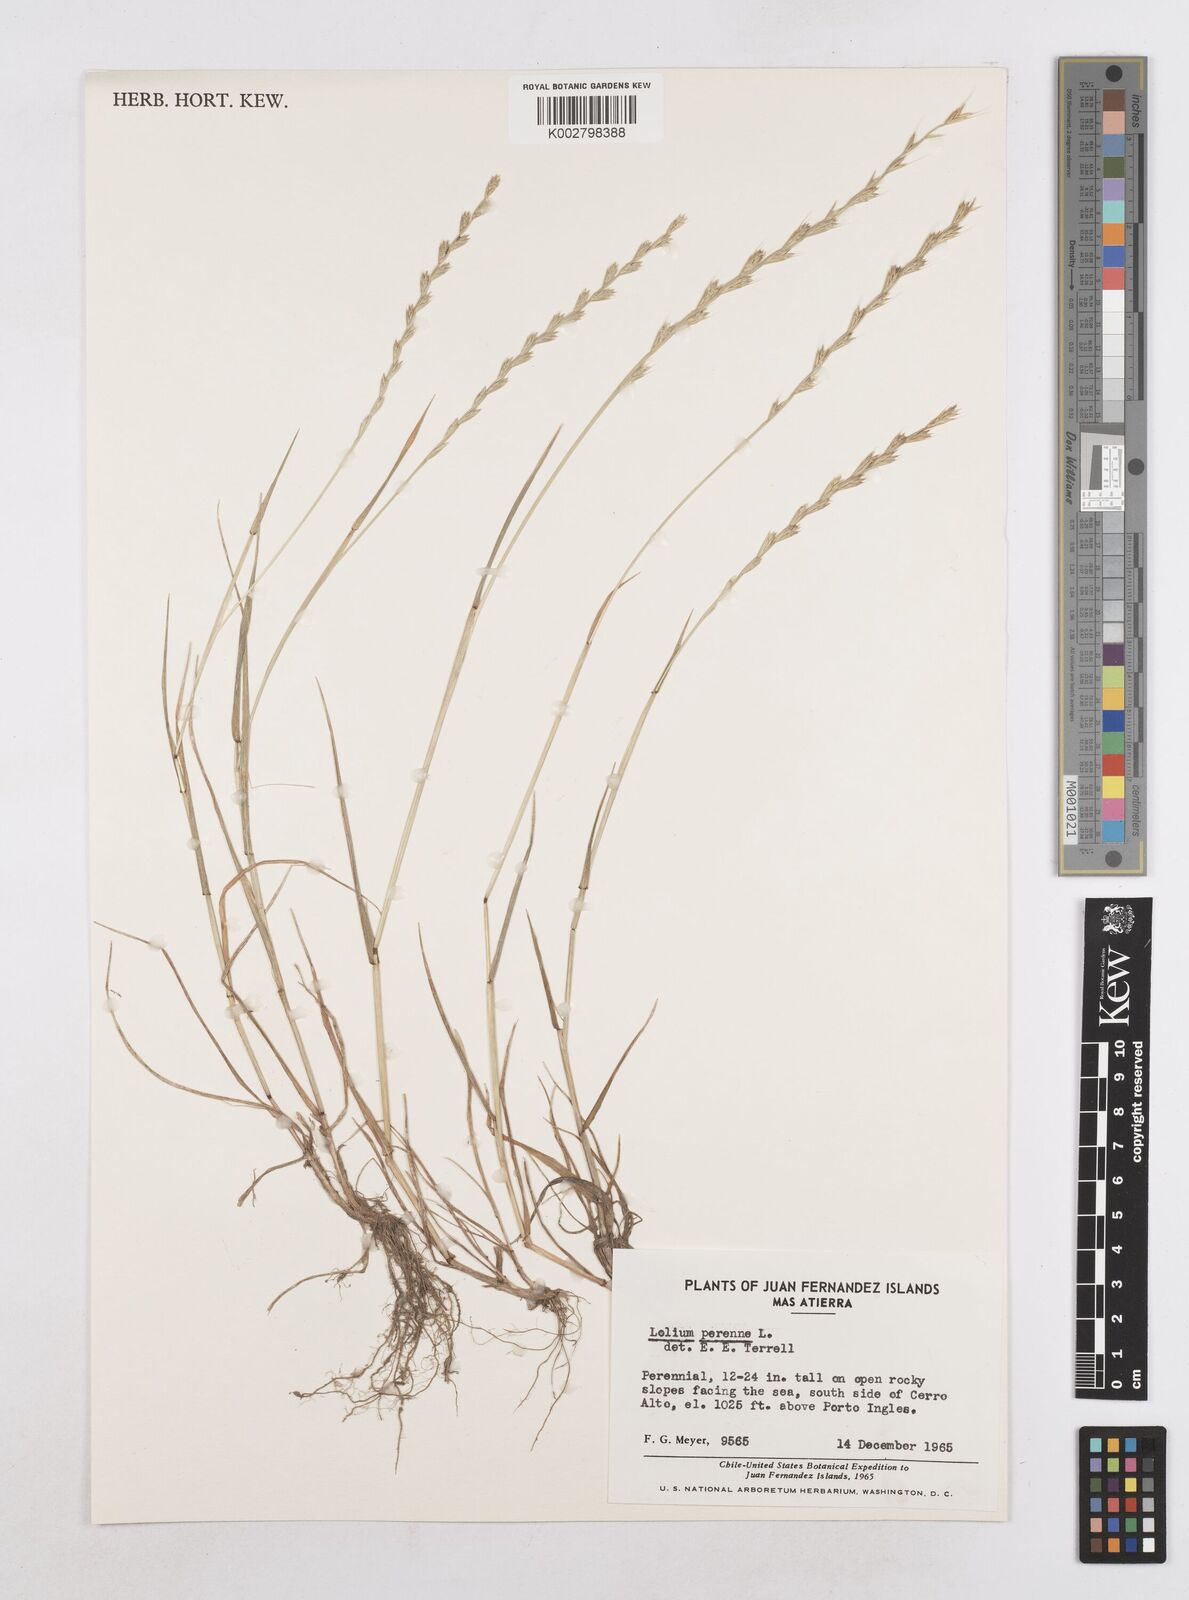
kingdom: Plantae
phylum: Tracheophyta
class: Liliopsida
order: Poales
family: Poaceae
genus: Lolium
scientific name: Lolium perenne
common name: Perennial ryegrass
